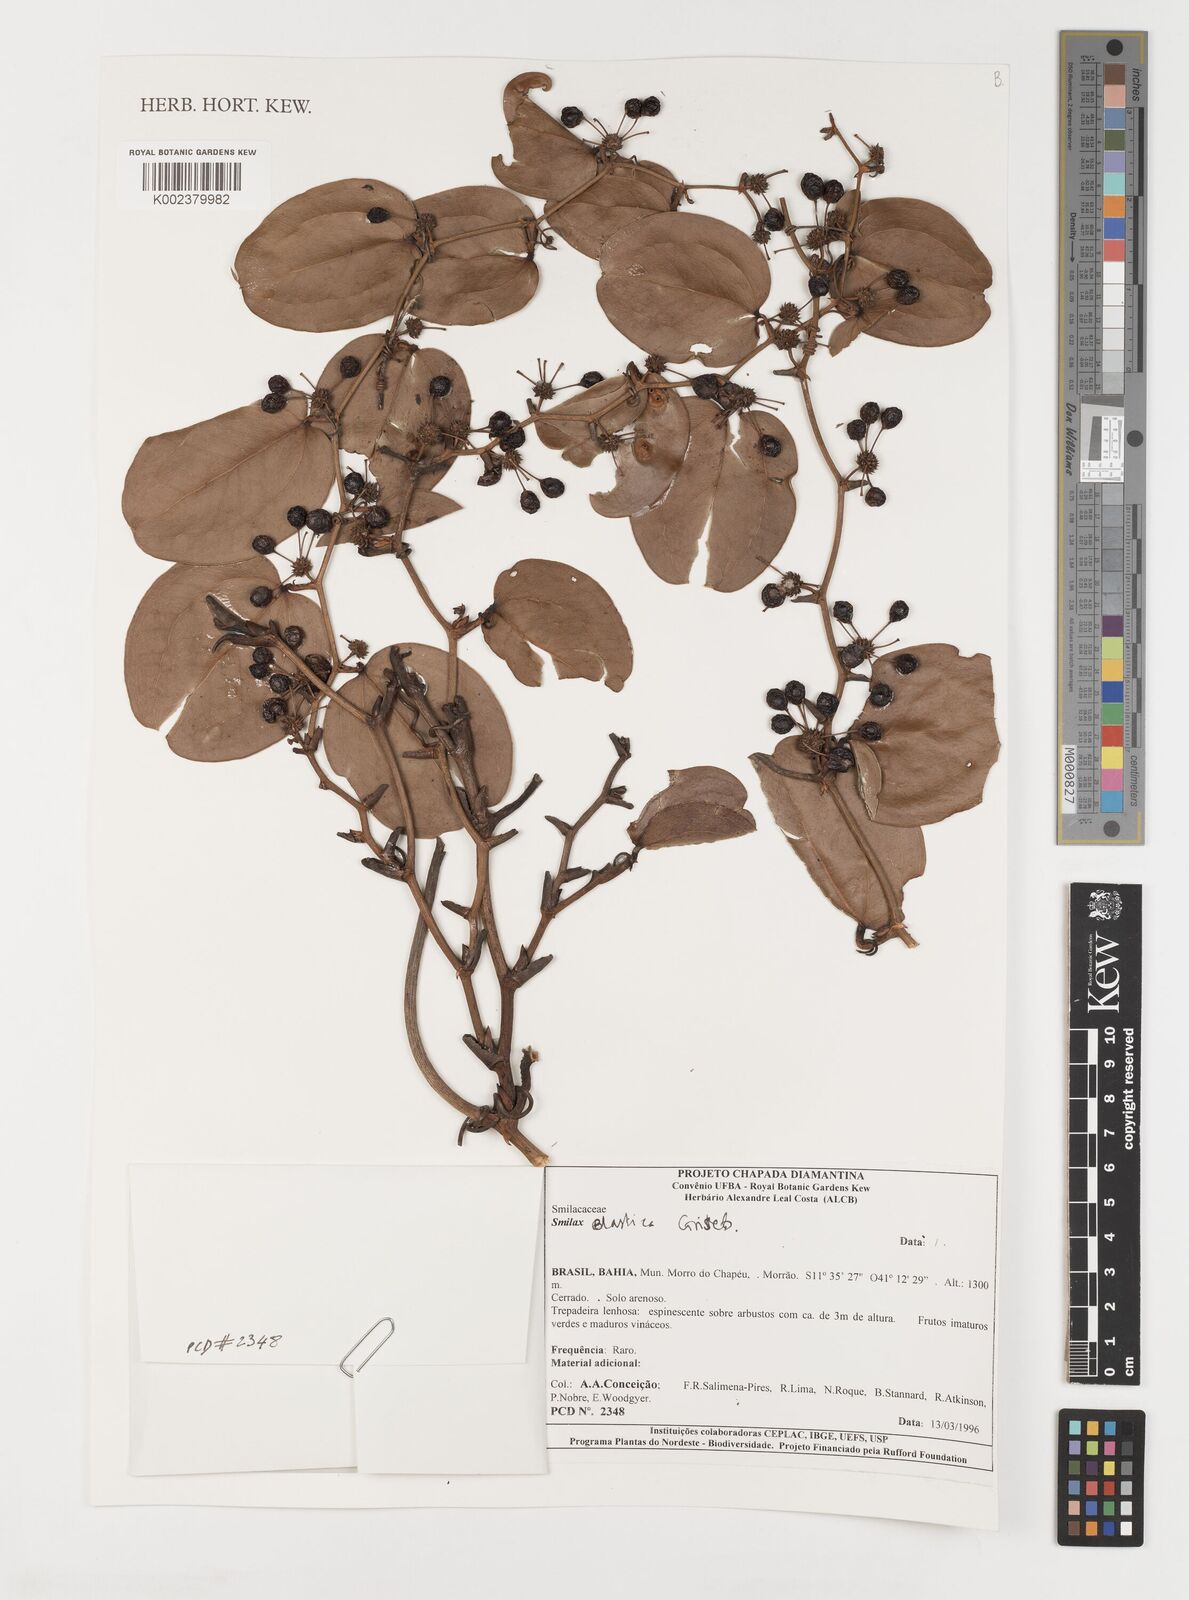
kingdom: Plantae
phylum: Tracheophyta
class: Liliopsida
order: Liliales
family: Smilacaceae
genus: Smilax
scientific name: Smilax elastica
